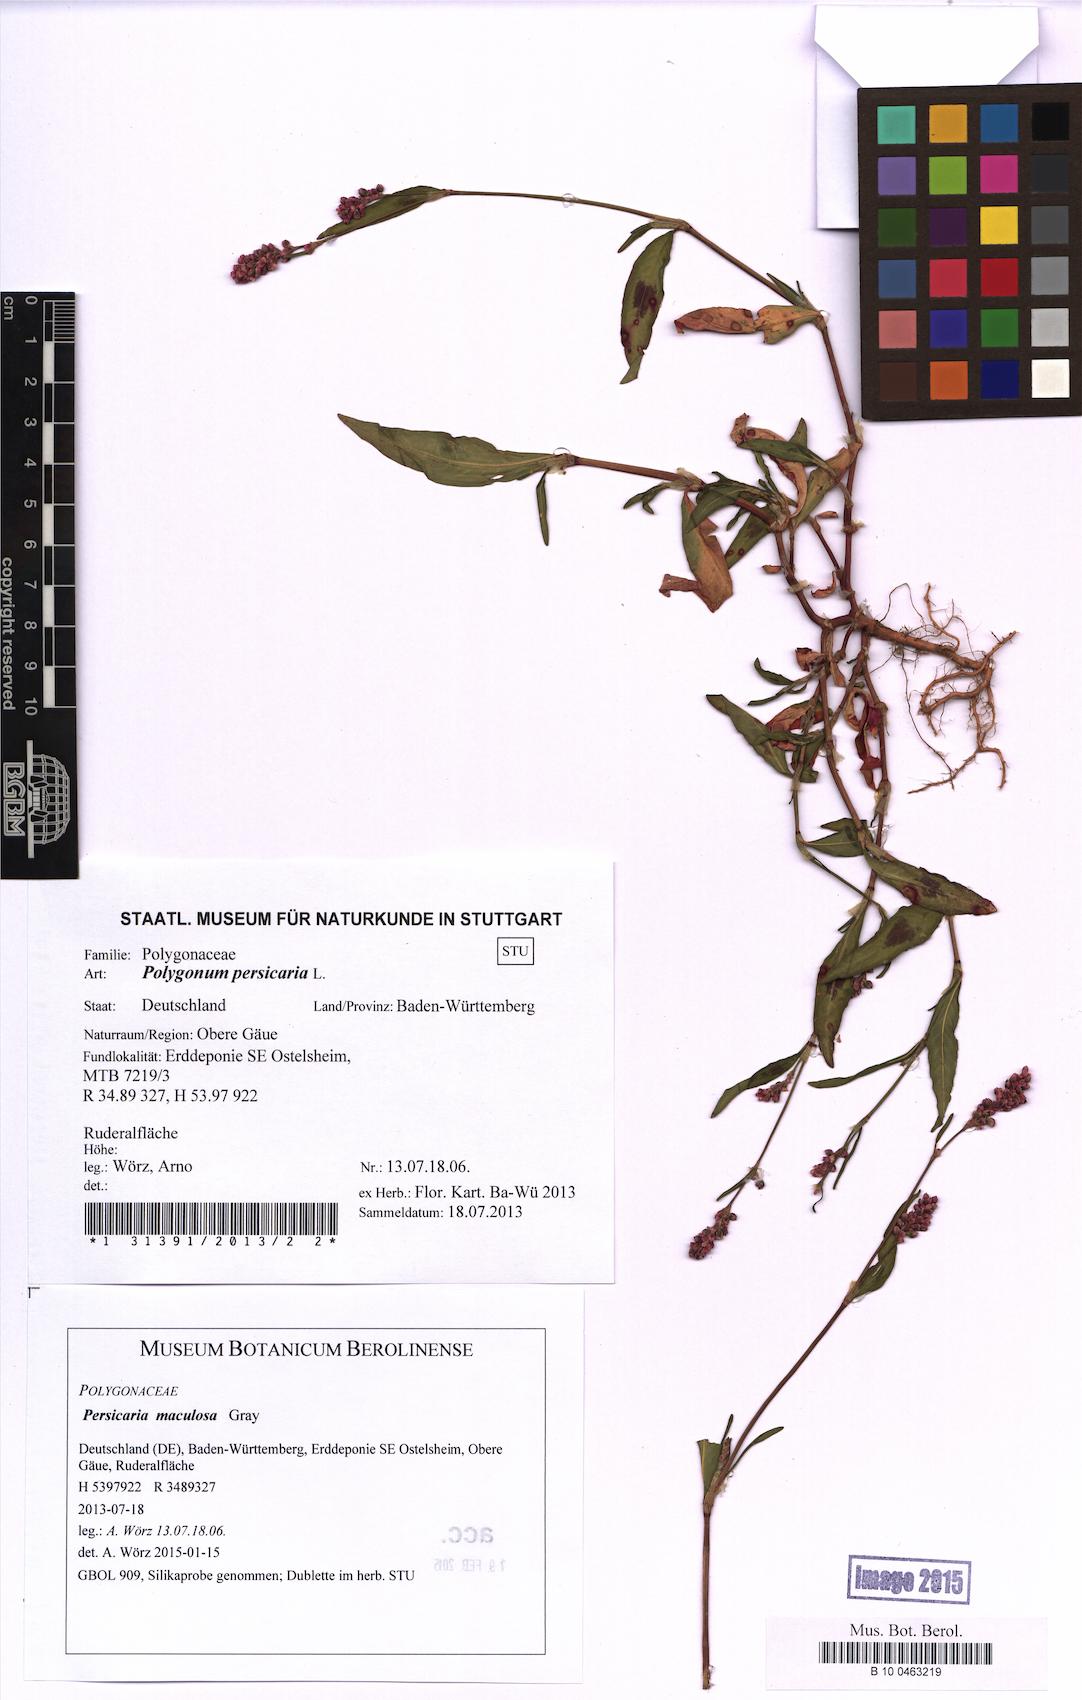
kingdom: Plantae
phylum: Tracheophyta
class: Magnoliopsida
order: Caryophyllales
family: Polygonaceae
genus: Persicaria
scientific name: Persicaria maculosa
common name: Redshank
